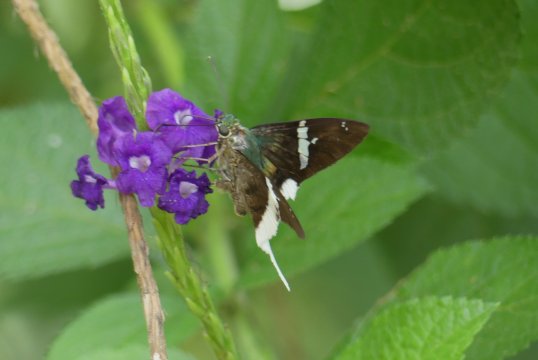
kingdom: Animalia
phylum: Arthropoda
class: Insecta
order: Lepidoptera
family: Hesperiidae
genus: Urbanus
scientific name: Urbanus chalco
